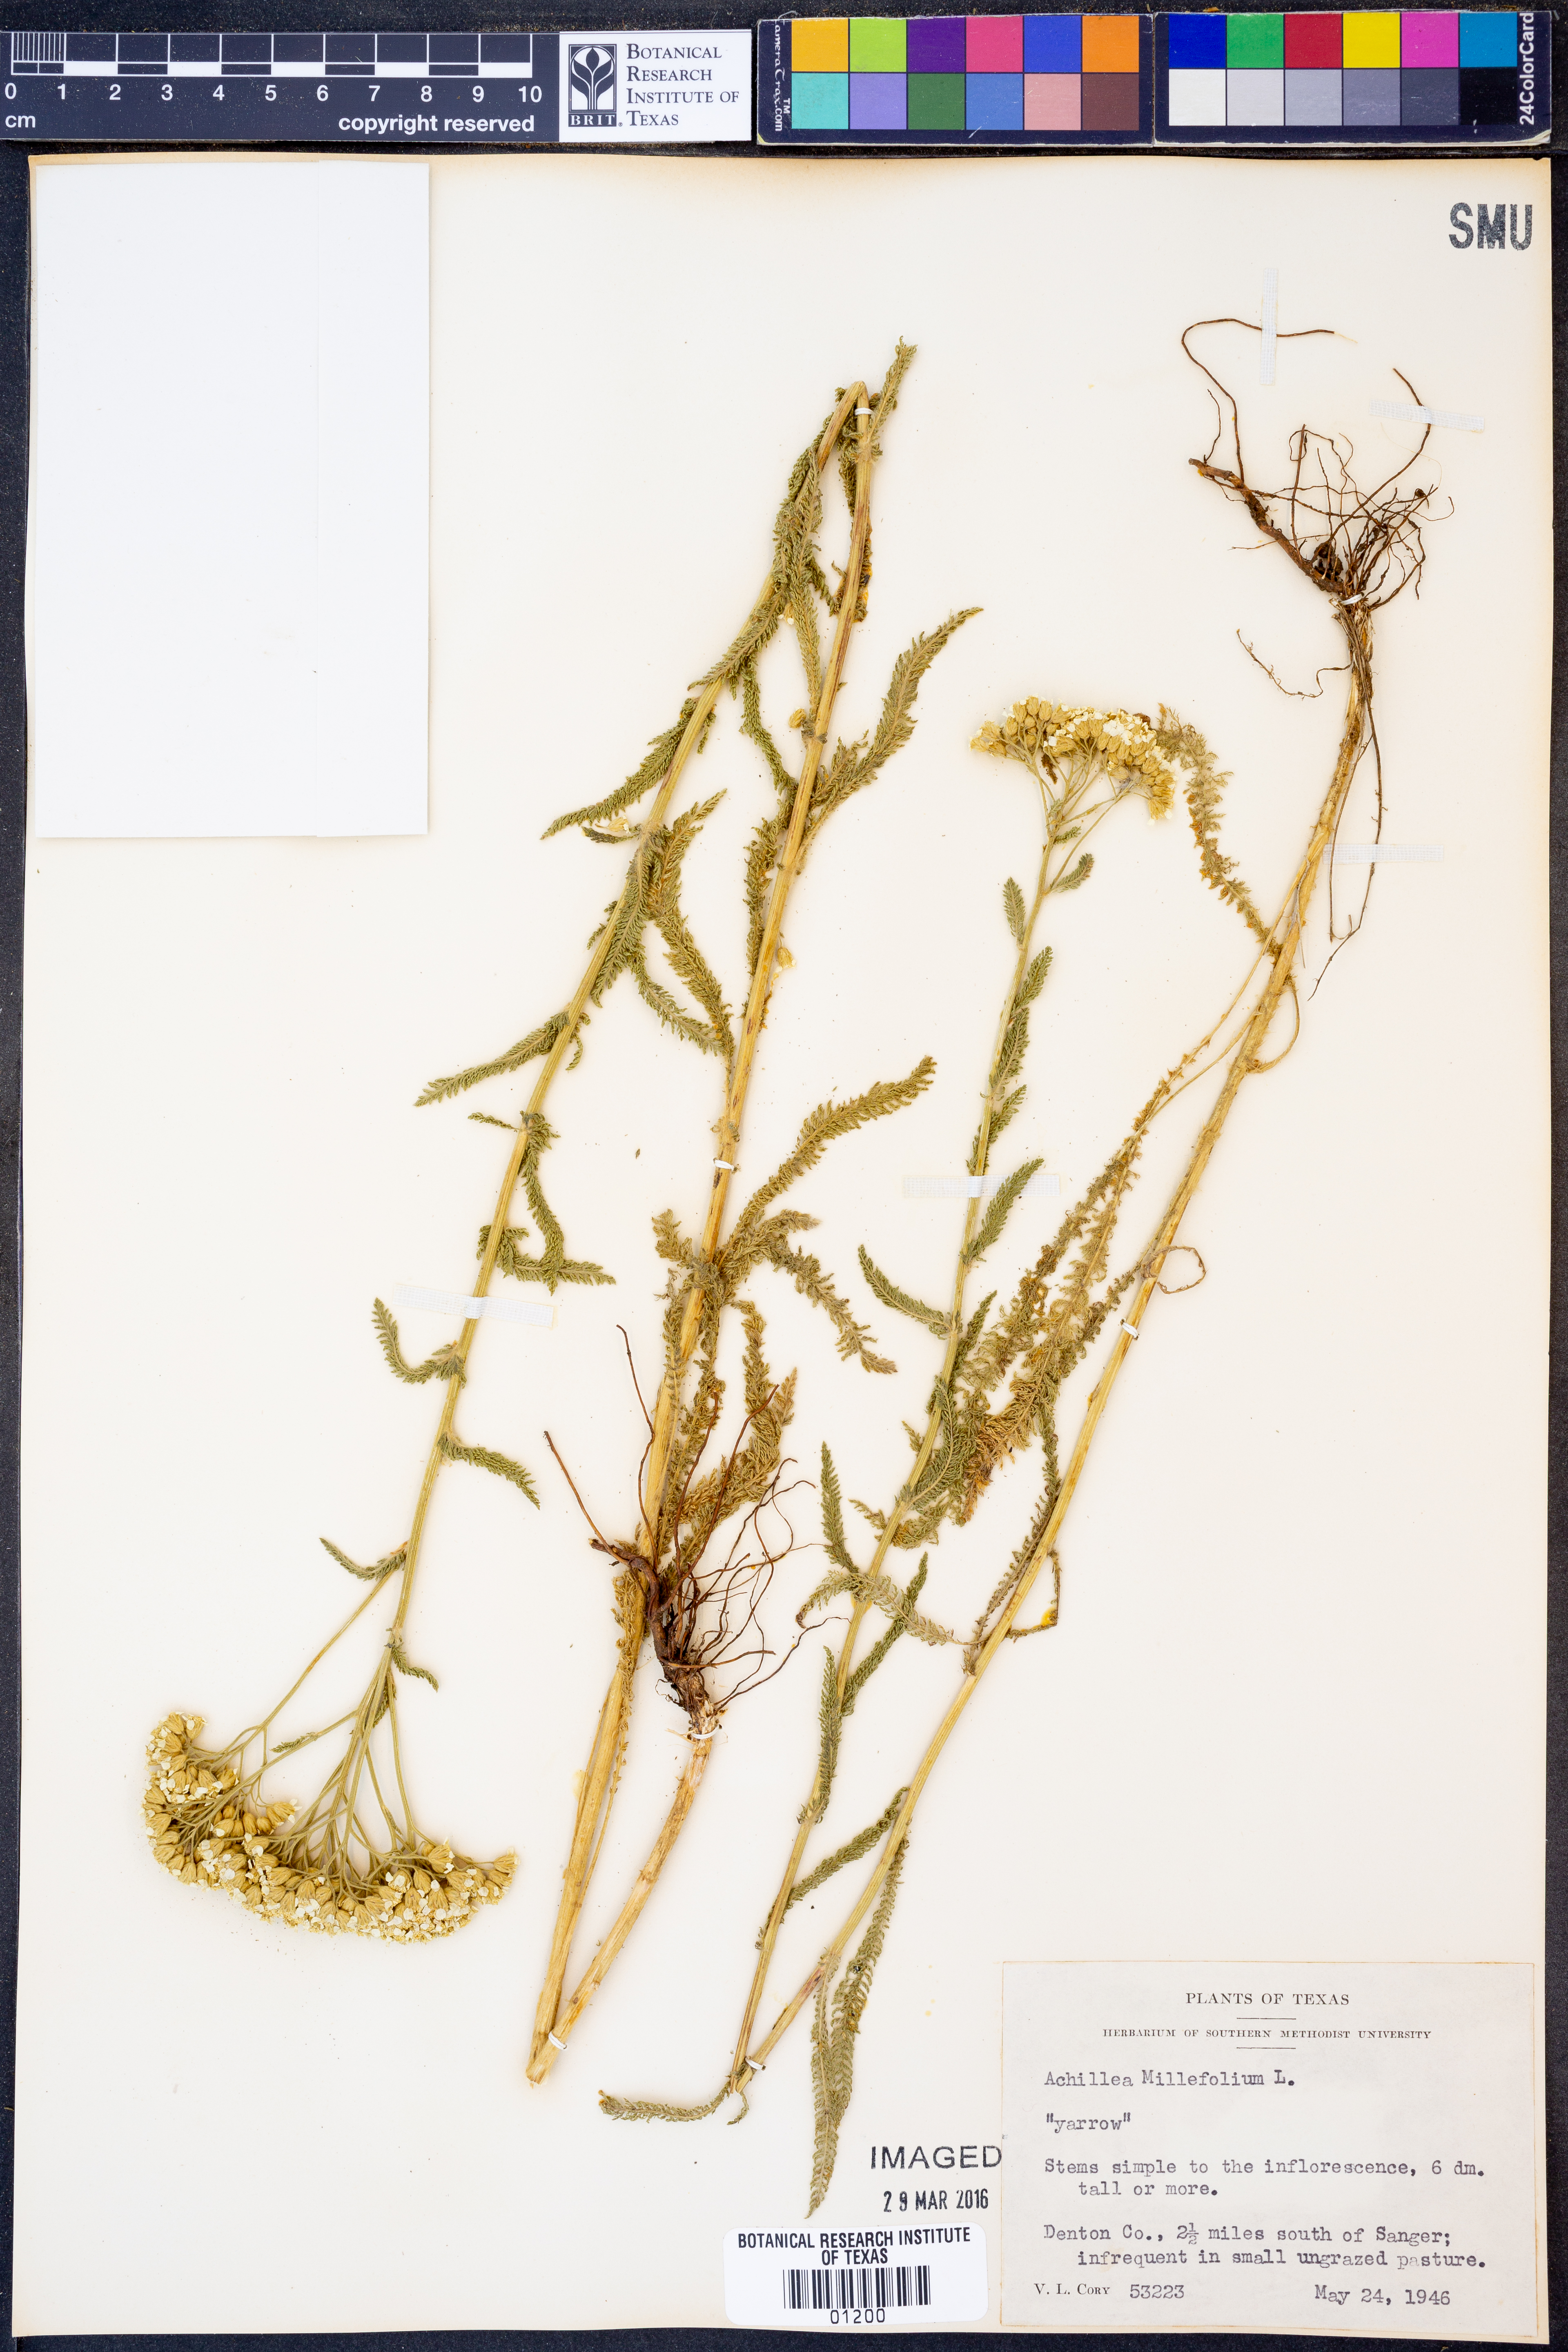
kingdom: Plantae
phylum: Tracheophyta
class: Magnoliopsida
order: Asterales
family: Asteraceae
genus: Achillea
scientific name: Achillea millefolium
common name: Yarrow
